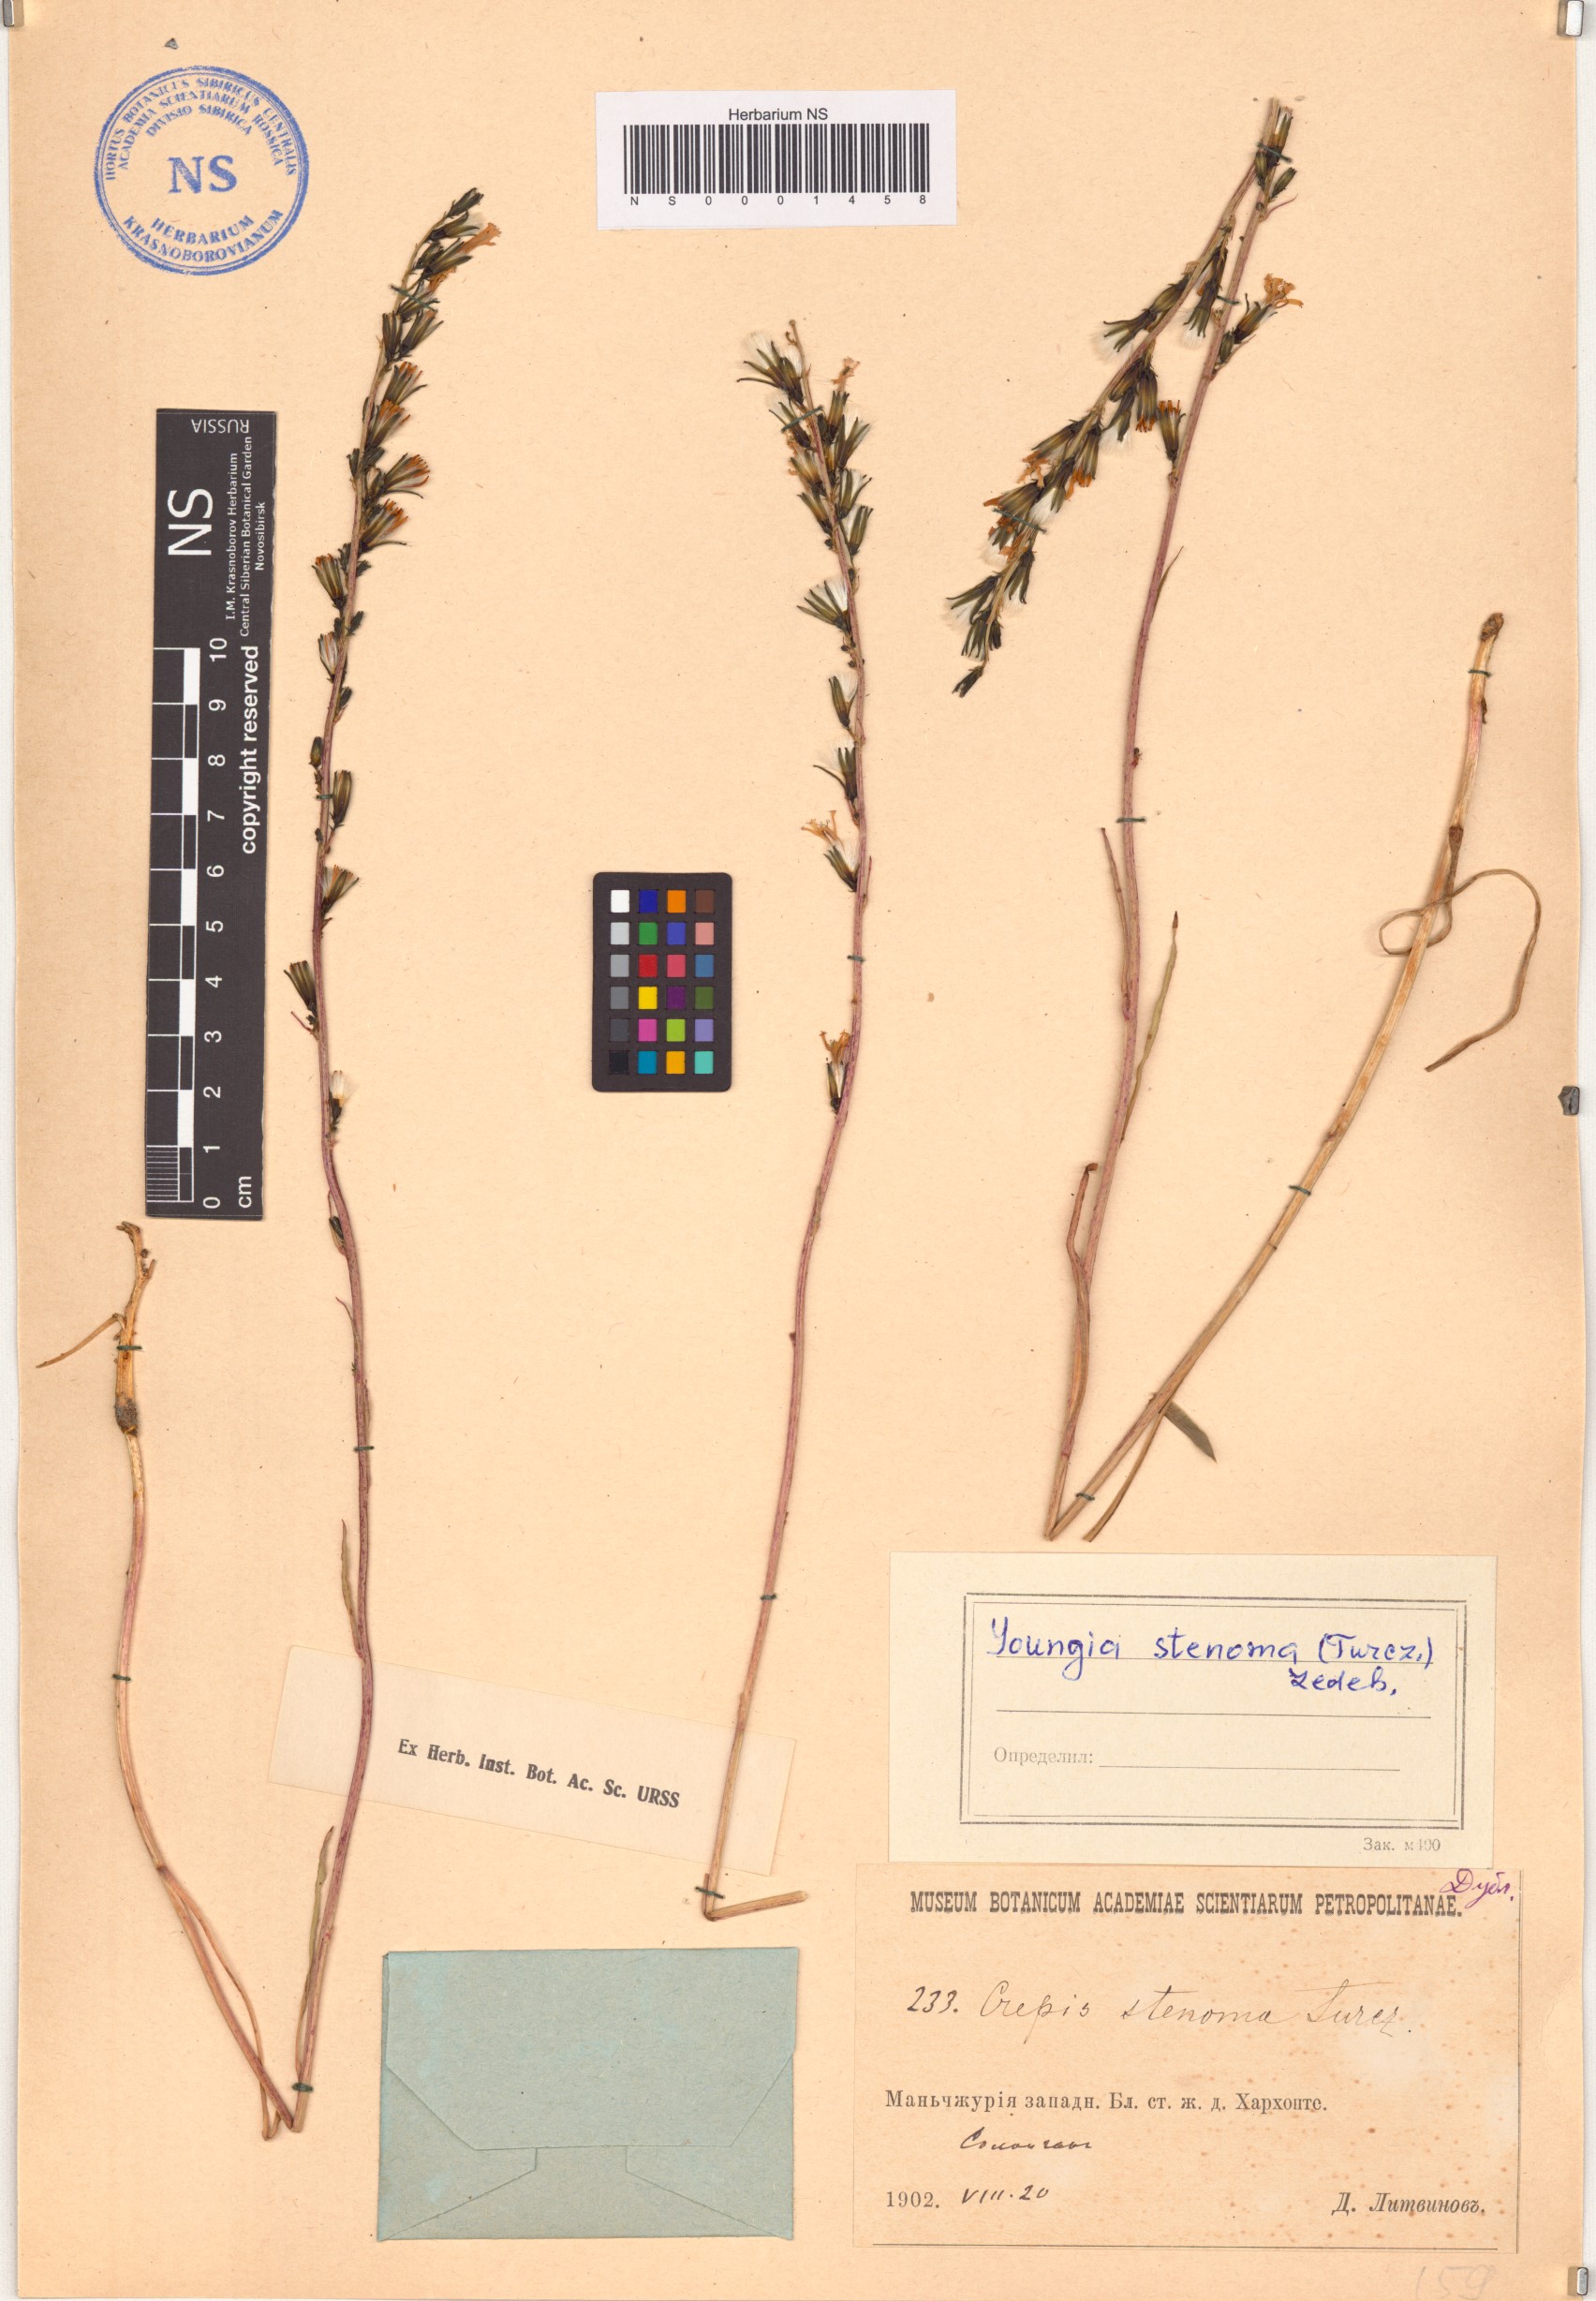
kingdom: Plantae
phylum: Tracheophyta
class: Magnoliopsida
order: Asterales
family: Asteraceae
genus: Sonchella
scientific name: Sonchella stenoma
